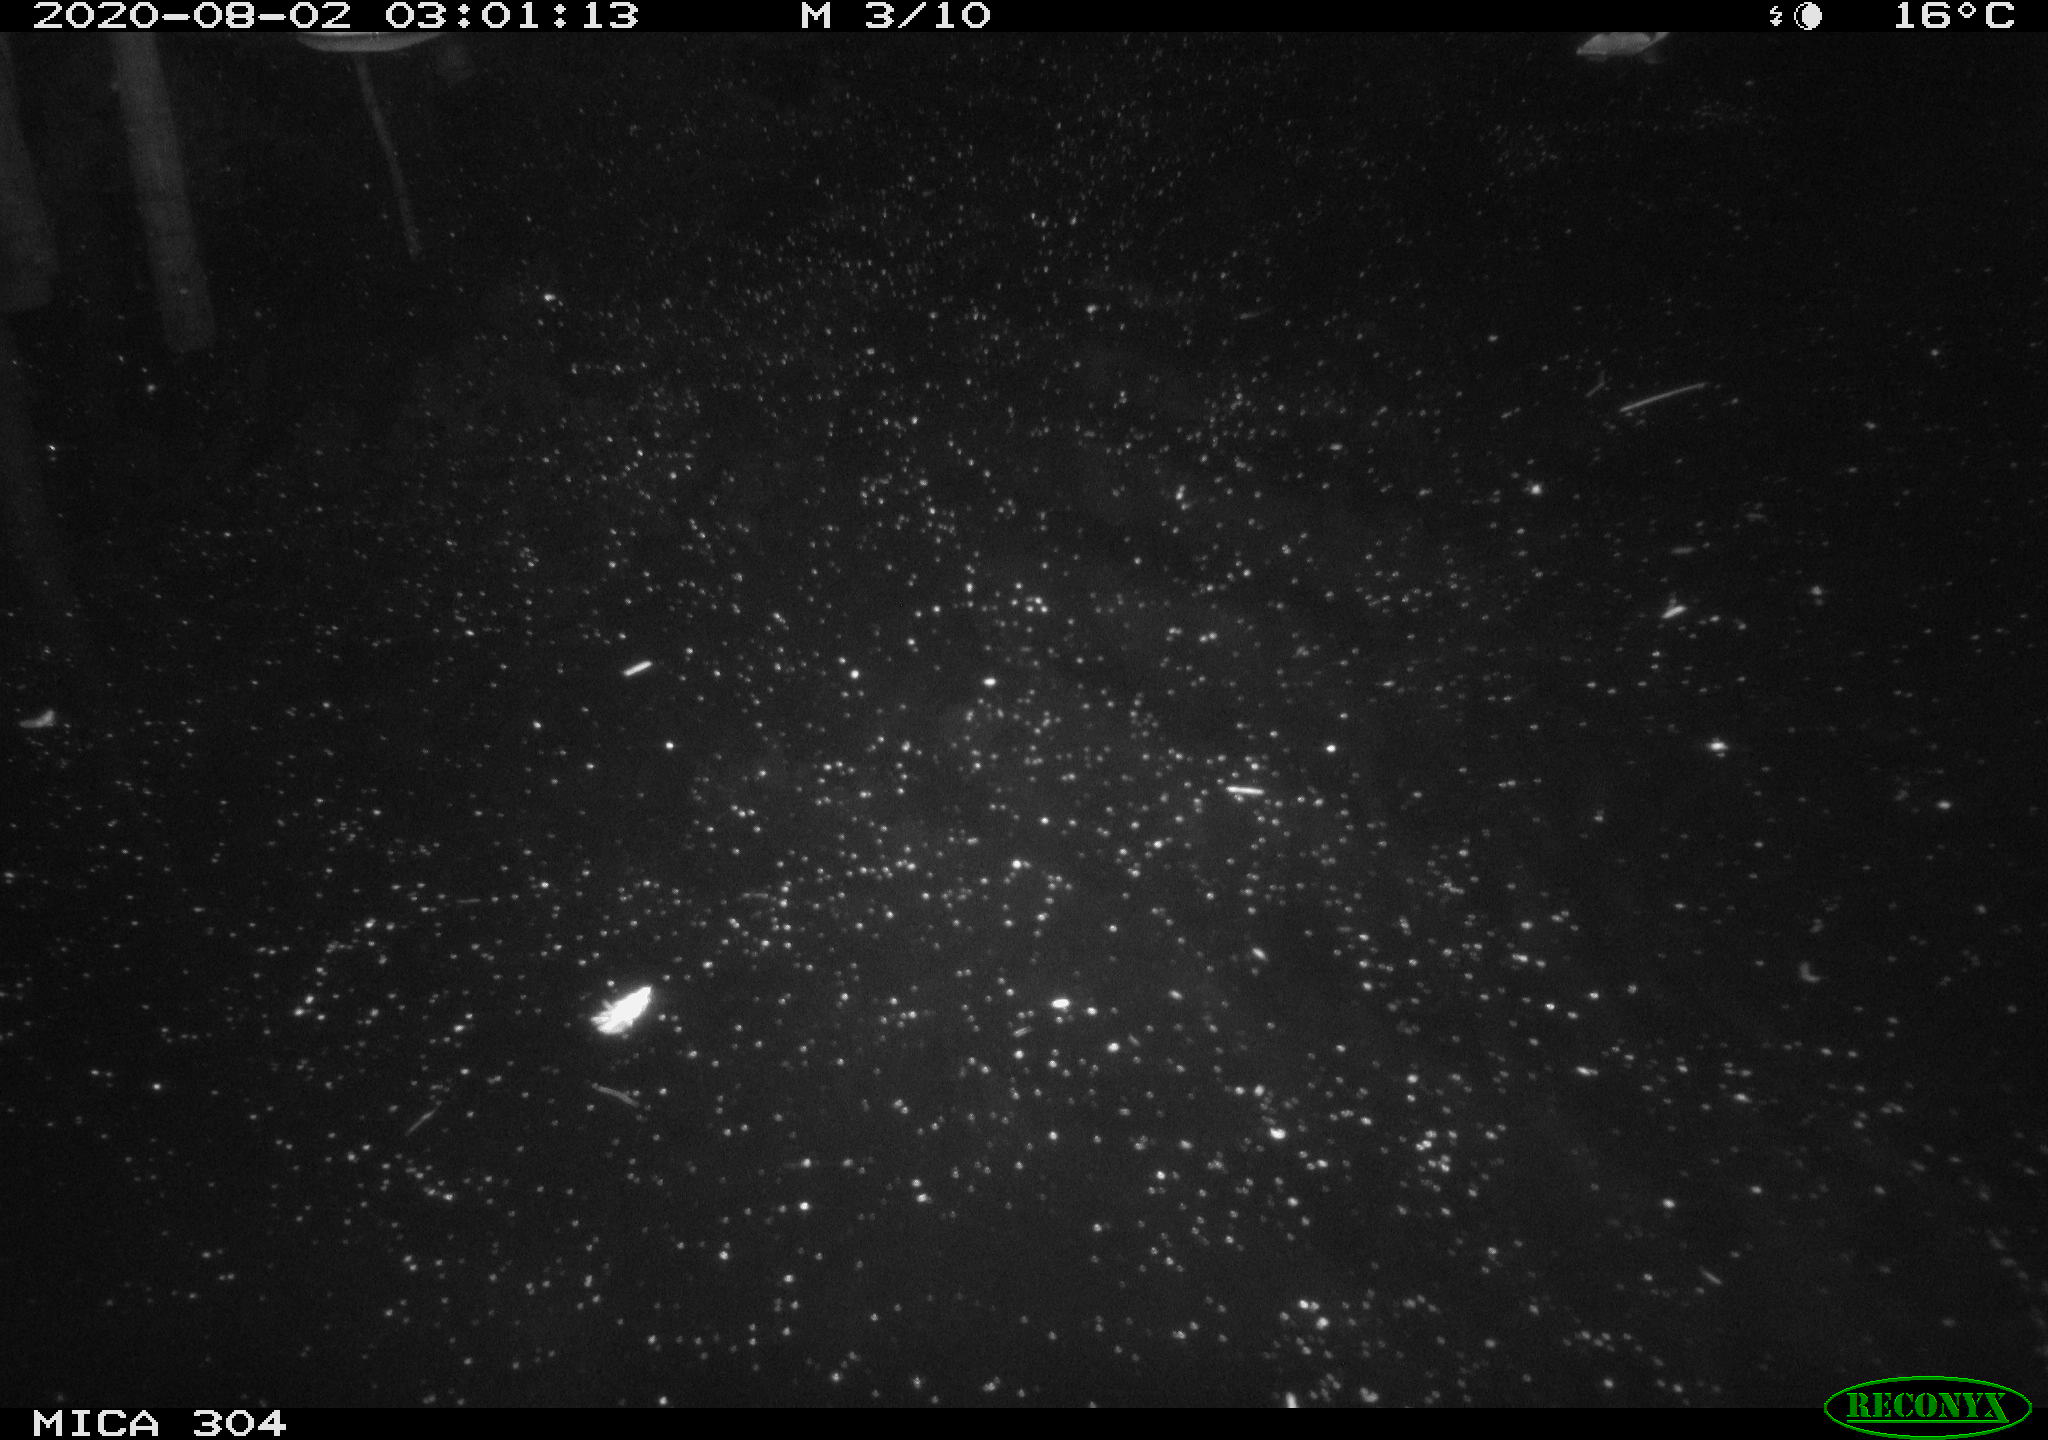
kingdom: Animalia
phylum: Chordata
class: Mammalia
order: Rodentia
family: Cricetidae
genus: Ondatra
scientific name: Ondatra zibethicus
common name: Muskrat
